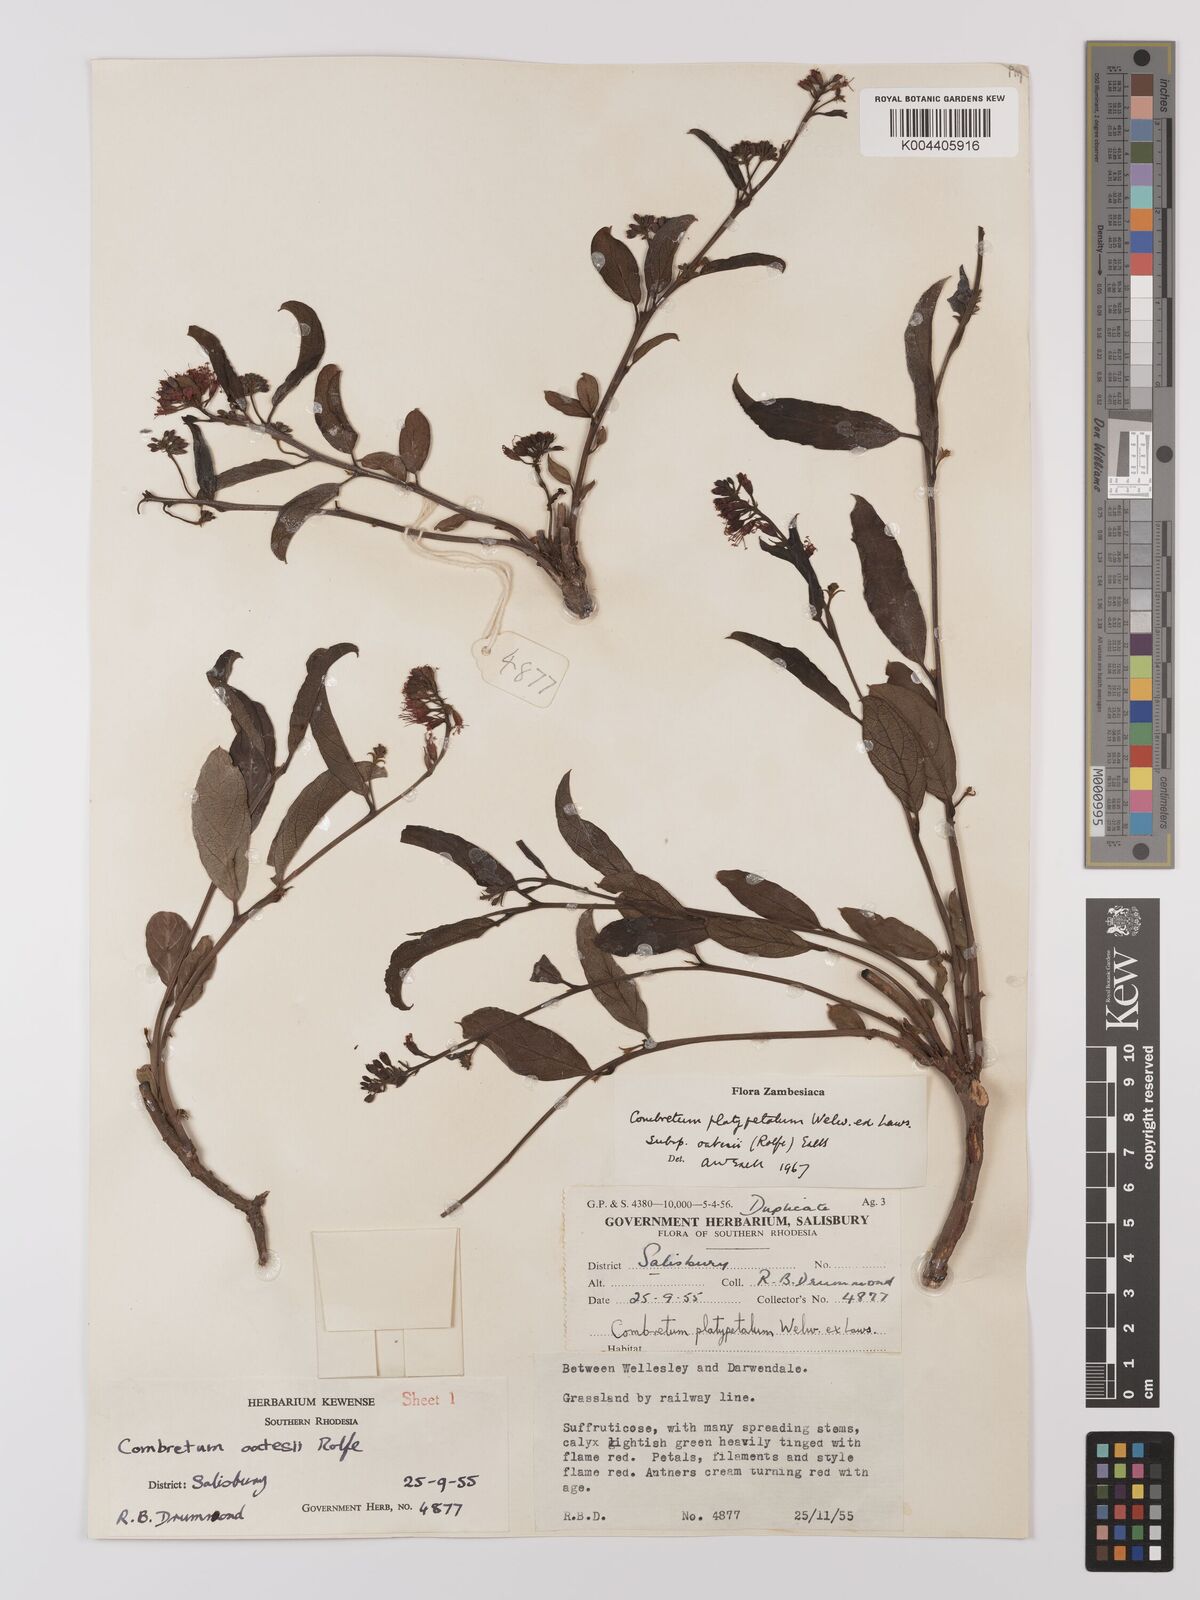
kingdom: Plantae
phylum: Tracheophyta
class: Magnoliopsida
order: Myrtales
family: Combretaceae
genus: Combretum
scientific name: Combretum platypetalum
